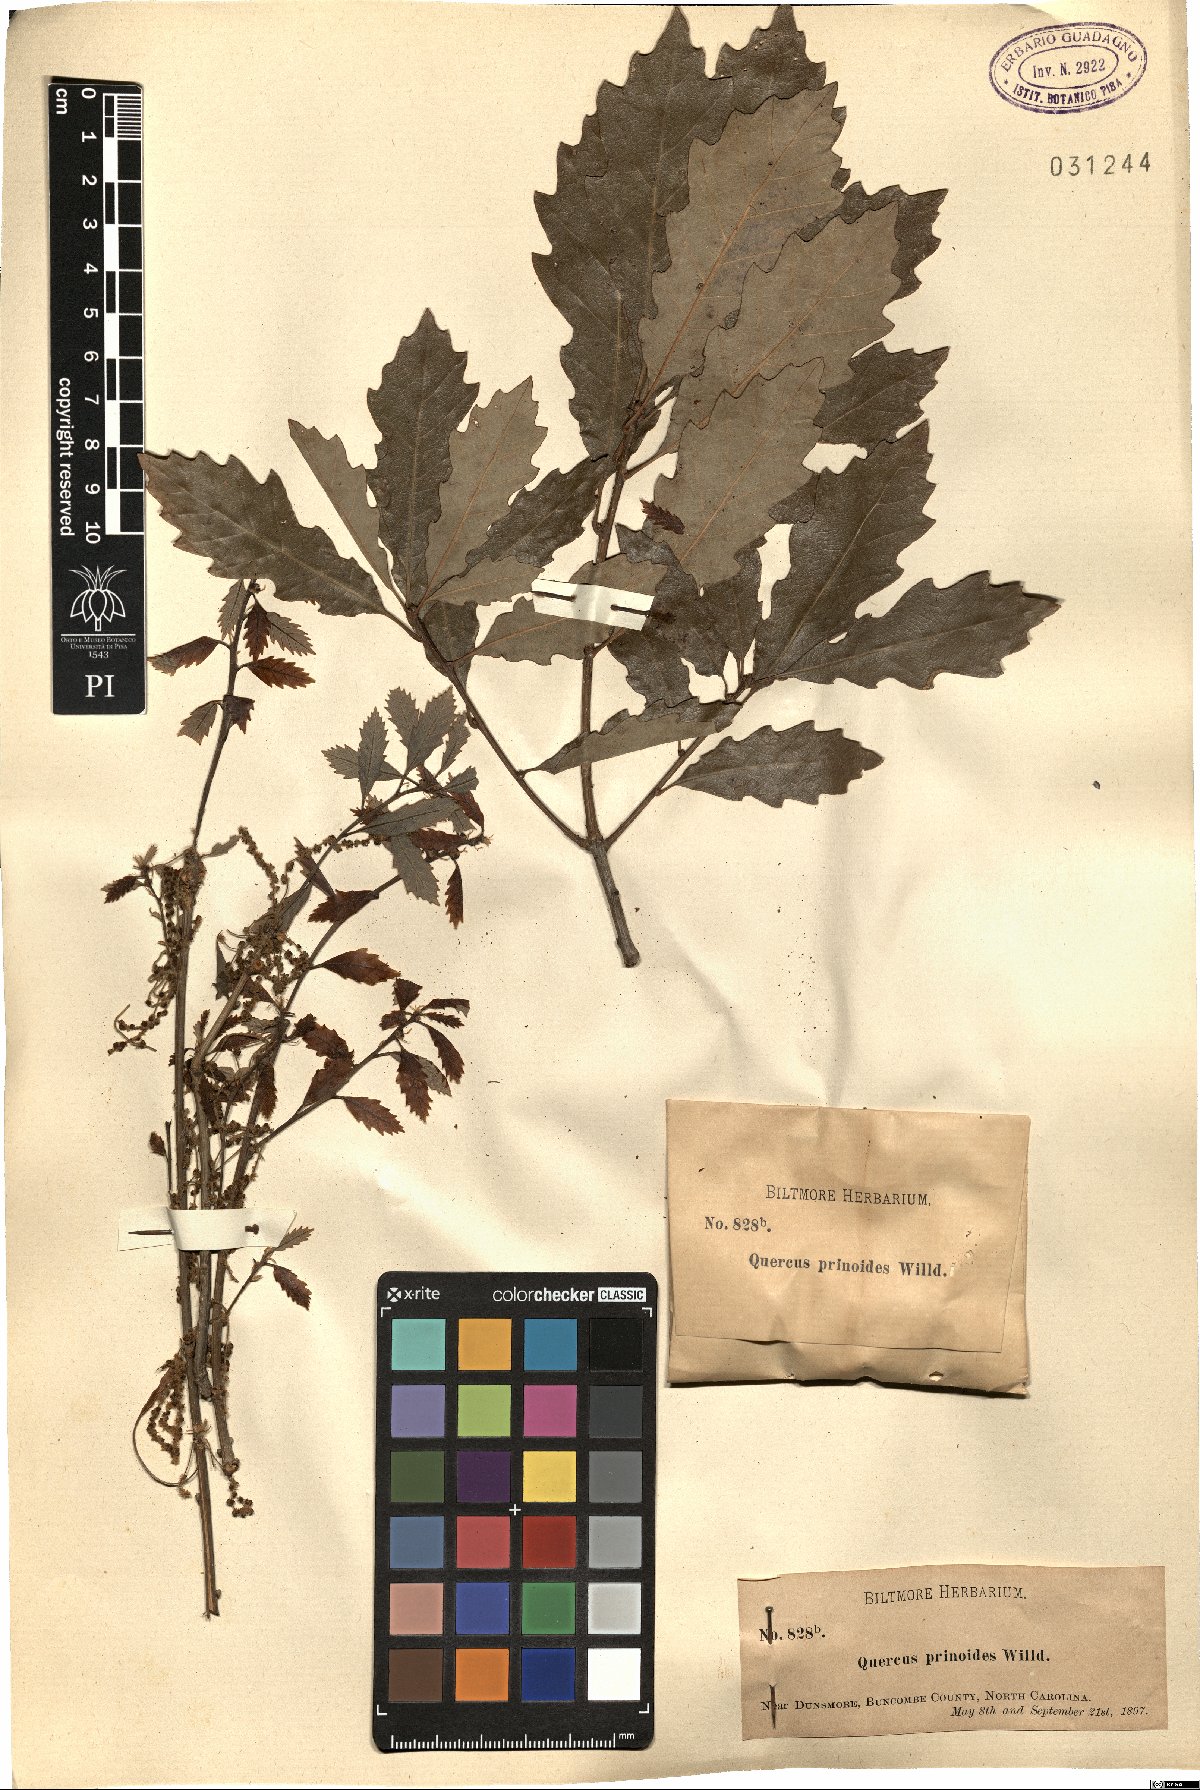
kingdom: Plantae
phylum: Tracheophyta
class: Magnoliopsida
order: Fagales
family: Fagaceae
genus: Quercus
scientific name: Quercus prinoides
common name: Dwarf chinkapin oak
